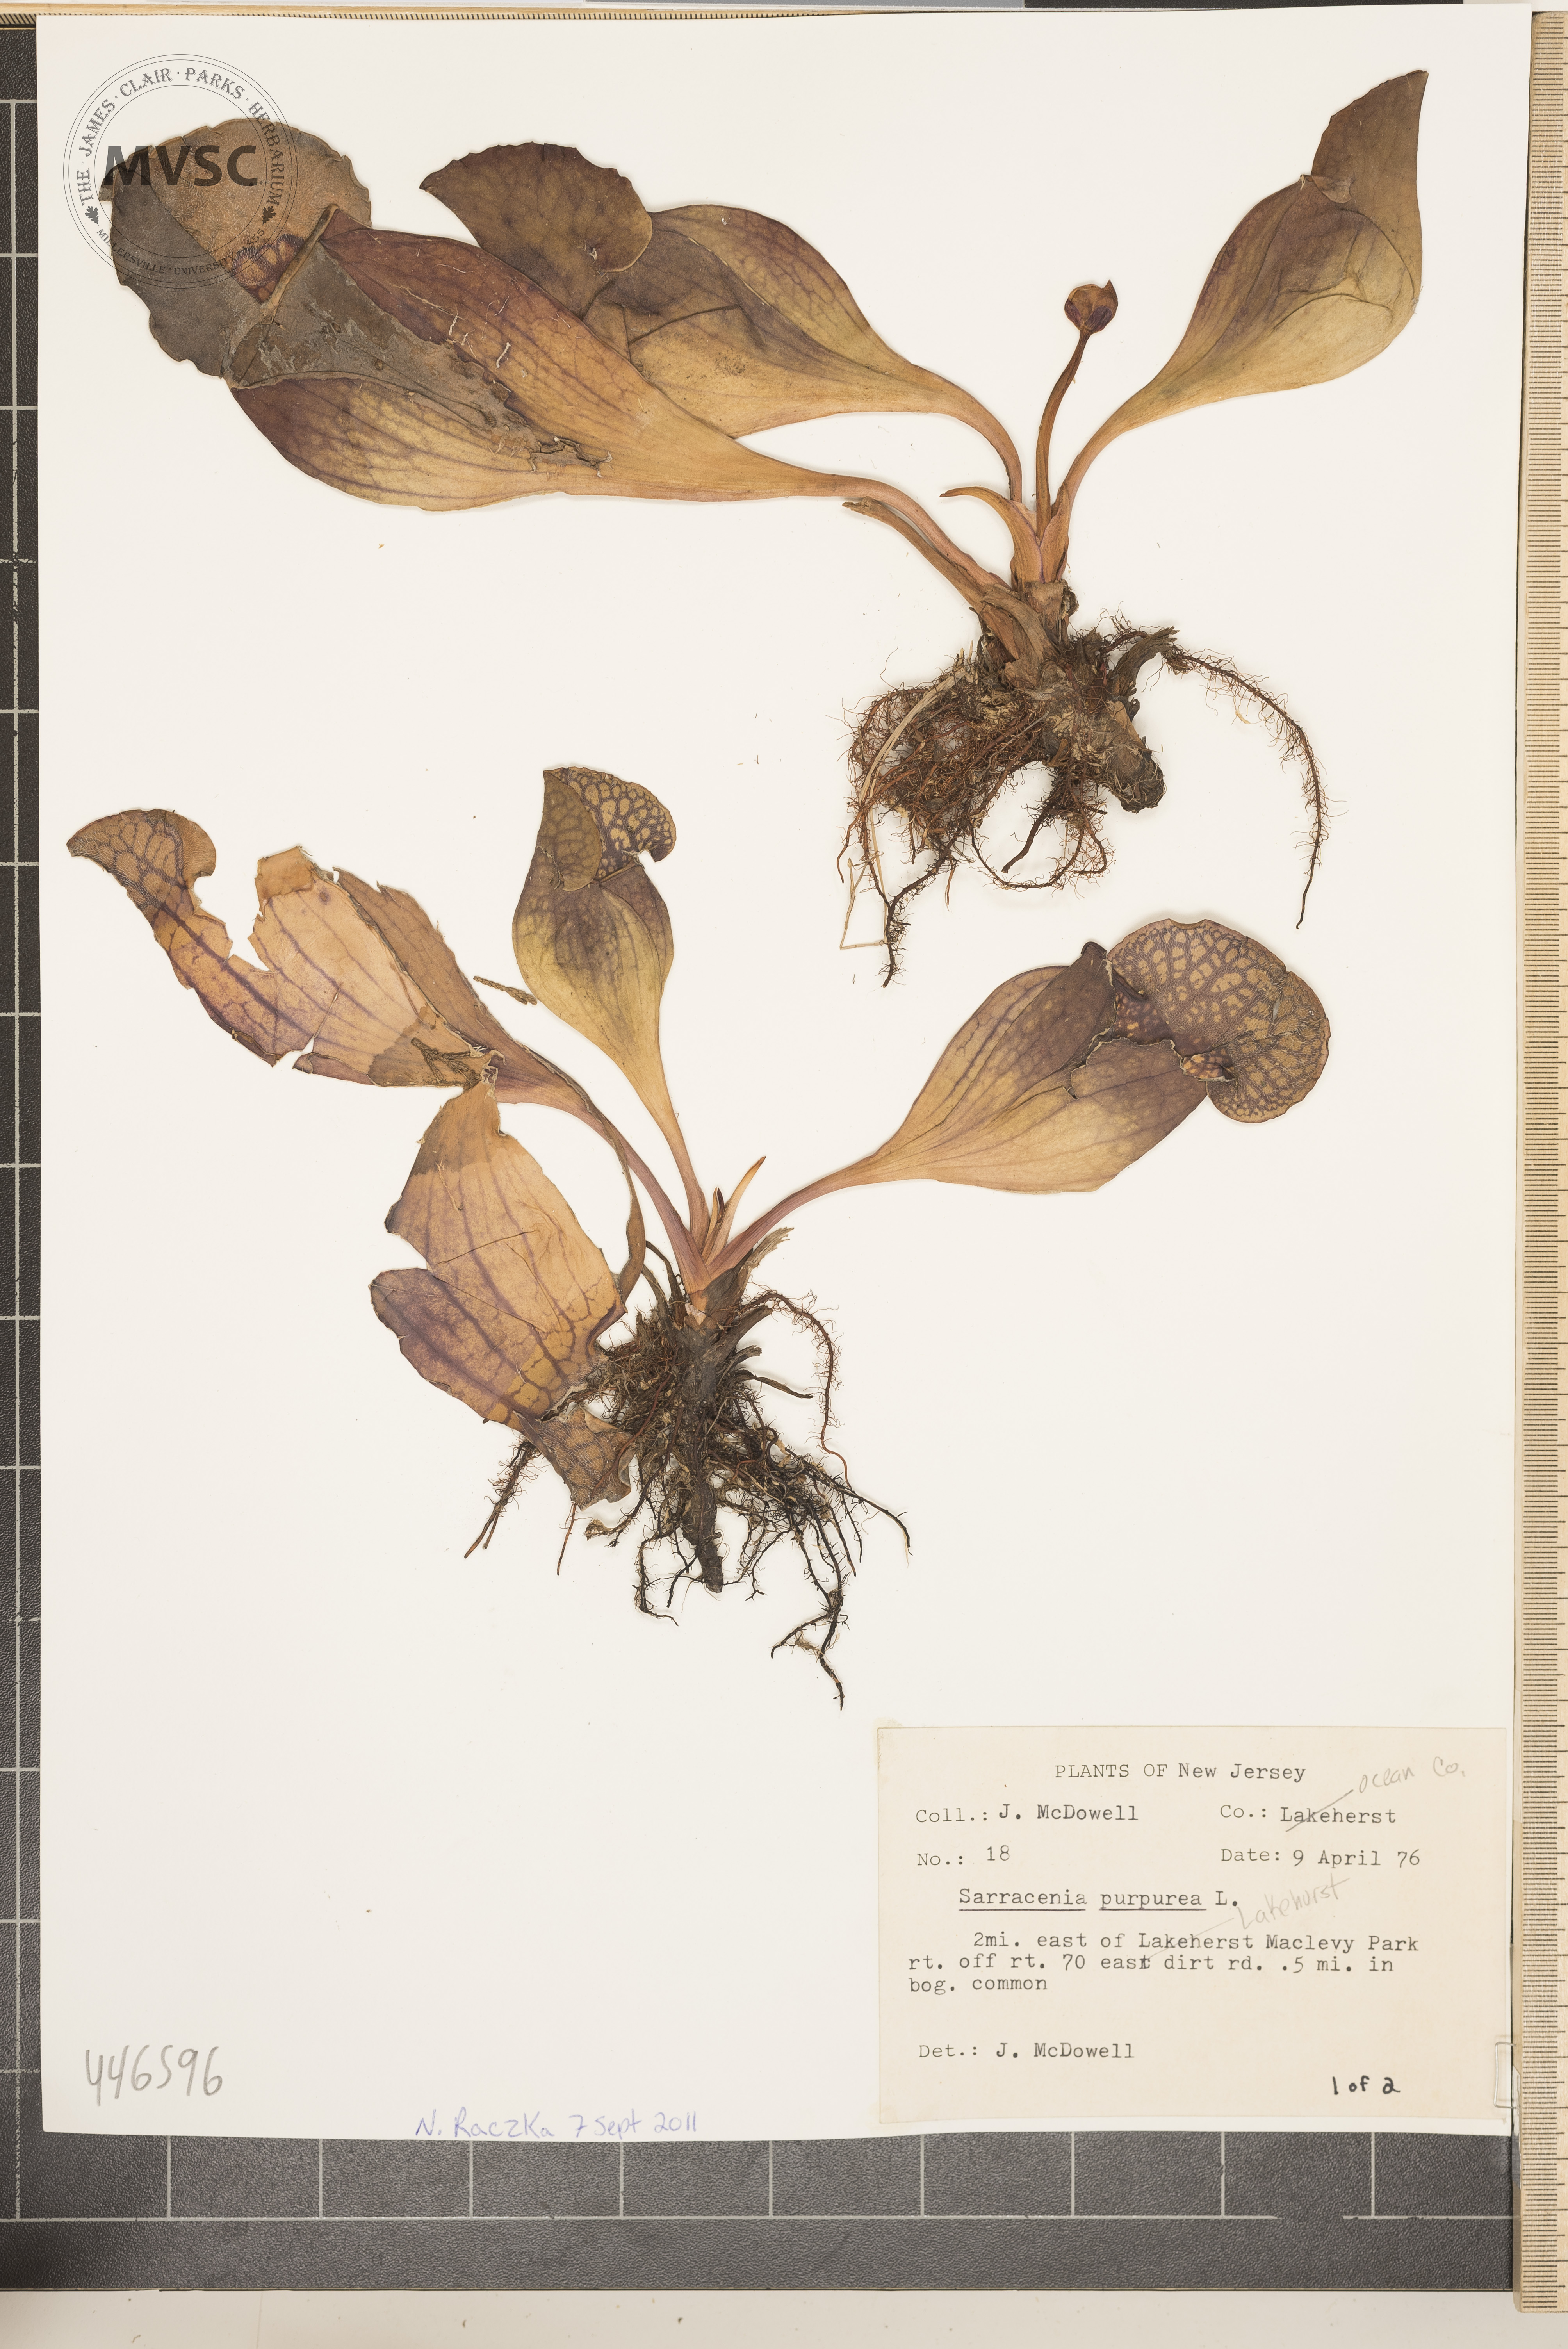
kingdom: Plantae
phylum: Tracheophyta
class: Magnoliopsida
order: Ericales
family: Sarraceniaceae
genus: Sarracenia
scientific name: Sarracenia purpurea
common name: Pitcher plant
